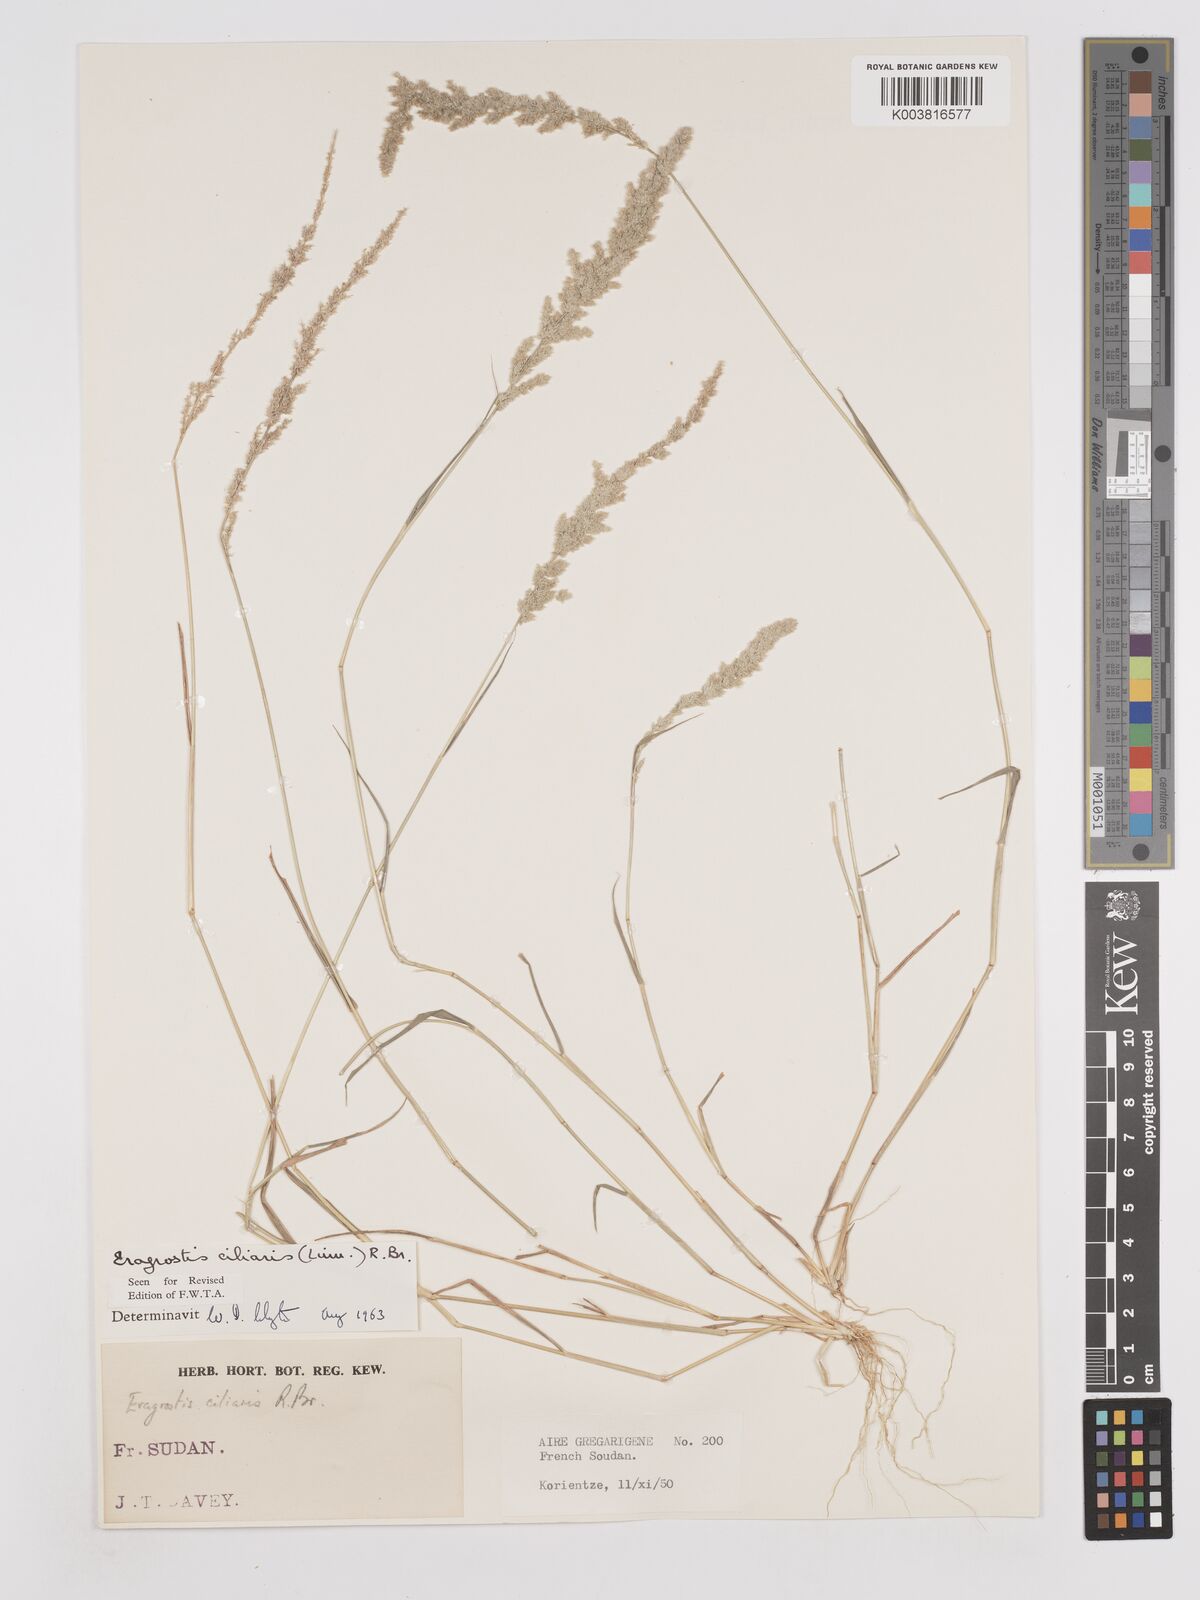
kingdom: Plantae
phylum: Tracheophyta
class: Liliopsida
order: Poales
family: Poaceae
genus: Eragrostis
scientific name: Eragrostis ciliaris
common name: Gophertail lovegrass
